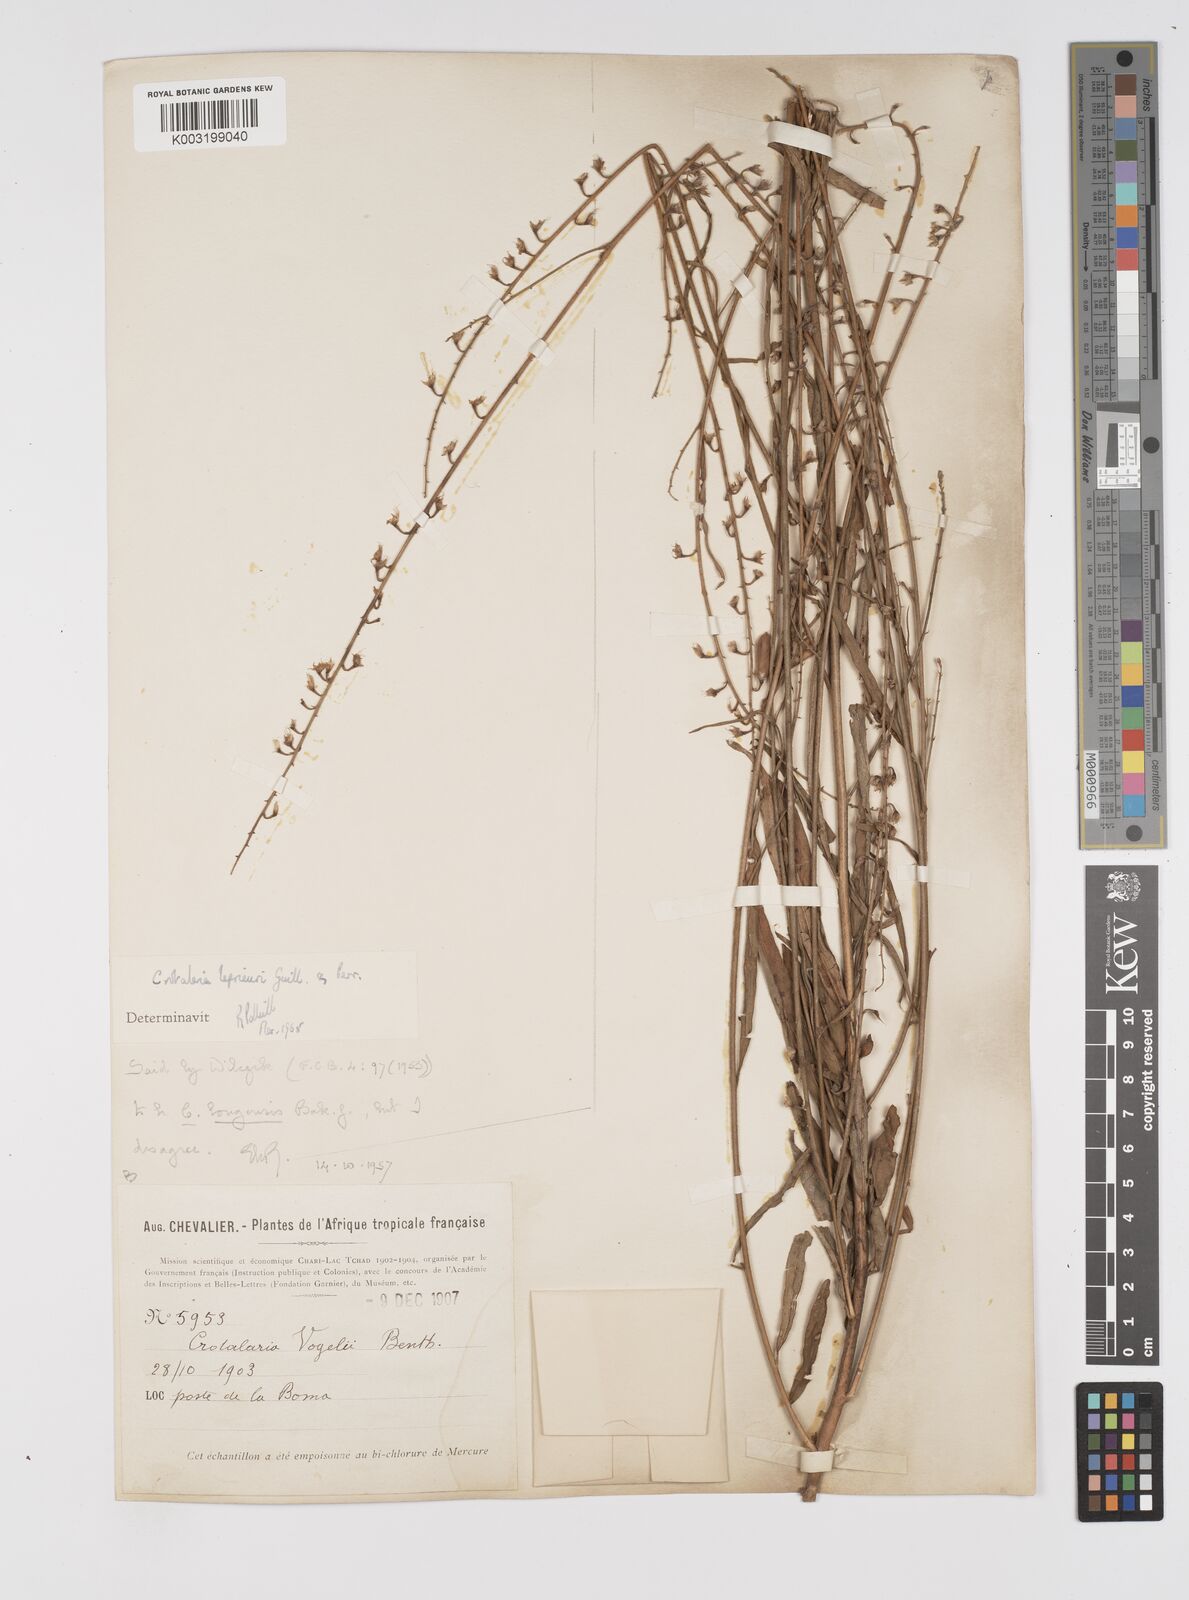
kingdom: Plantae
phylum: Tracheophyta
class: Magnoliopsida
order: Fabales
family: Fabaceae
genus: Crotalaria
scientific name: Crotalaria leprieurii
